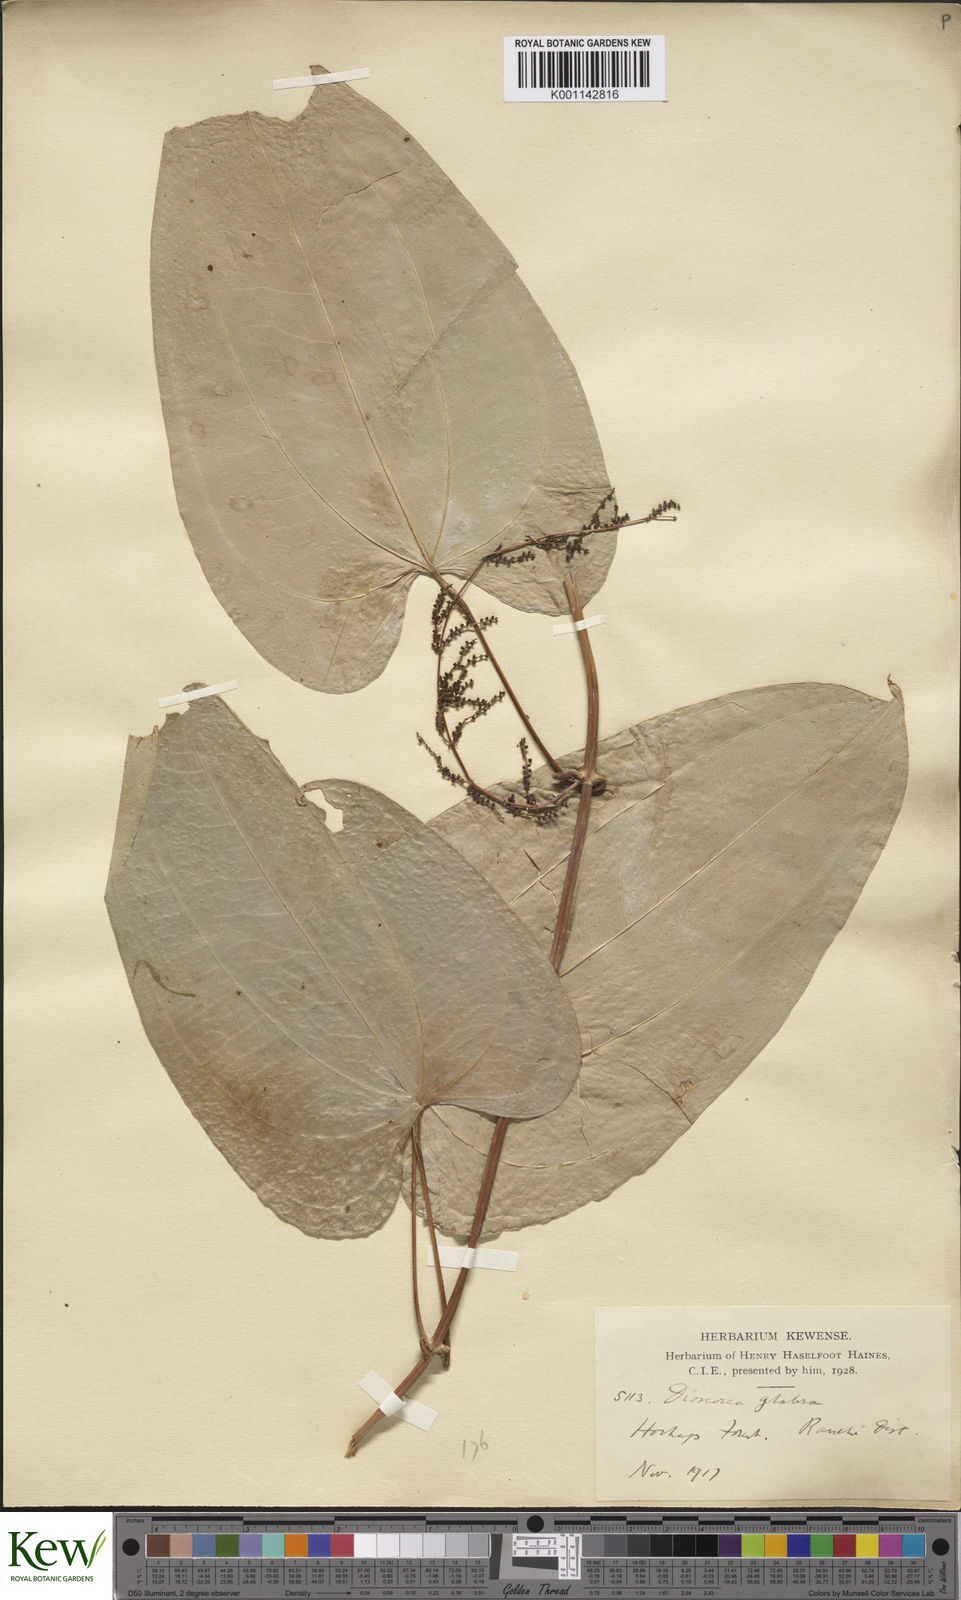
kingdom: Plantae
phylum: Tracheophyta
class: Liliopsida
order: Dioscoreales
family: Dioscoreaceae
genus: Dioscorea
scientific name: Dioscorea
